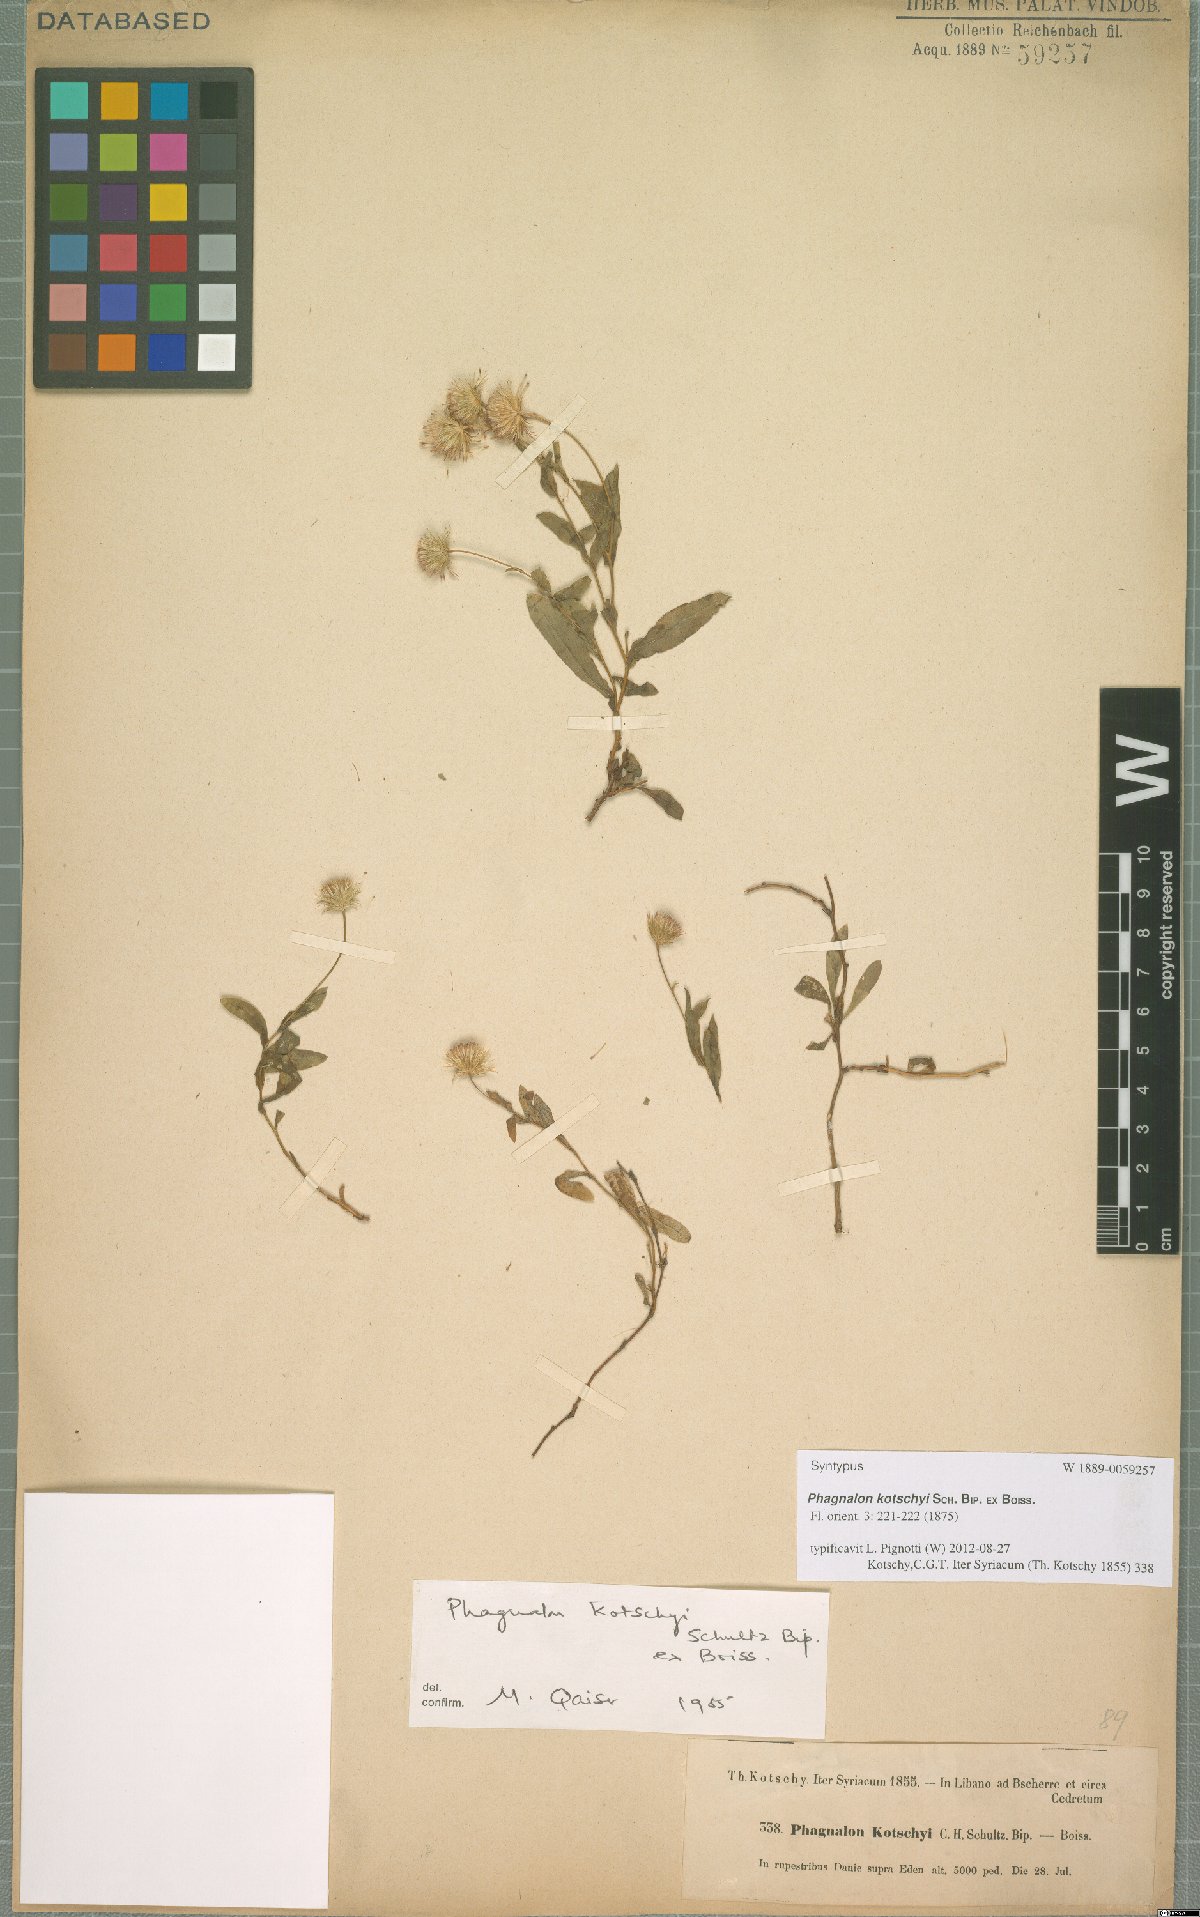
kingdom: Plantae
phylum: Tracheophyta
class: Magnoliopsida
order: Asterales
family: Asteraceae
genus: Phagnalon
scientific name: Phagnalon kotschyi
